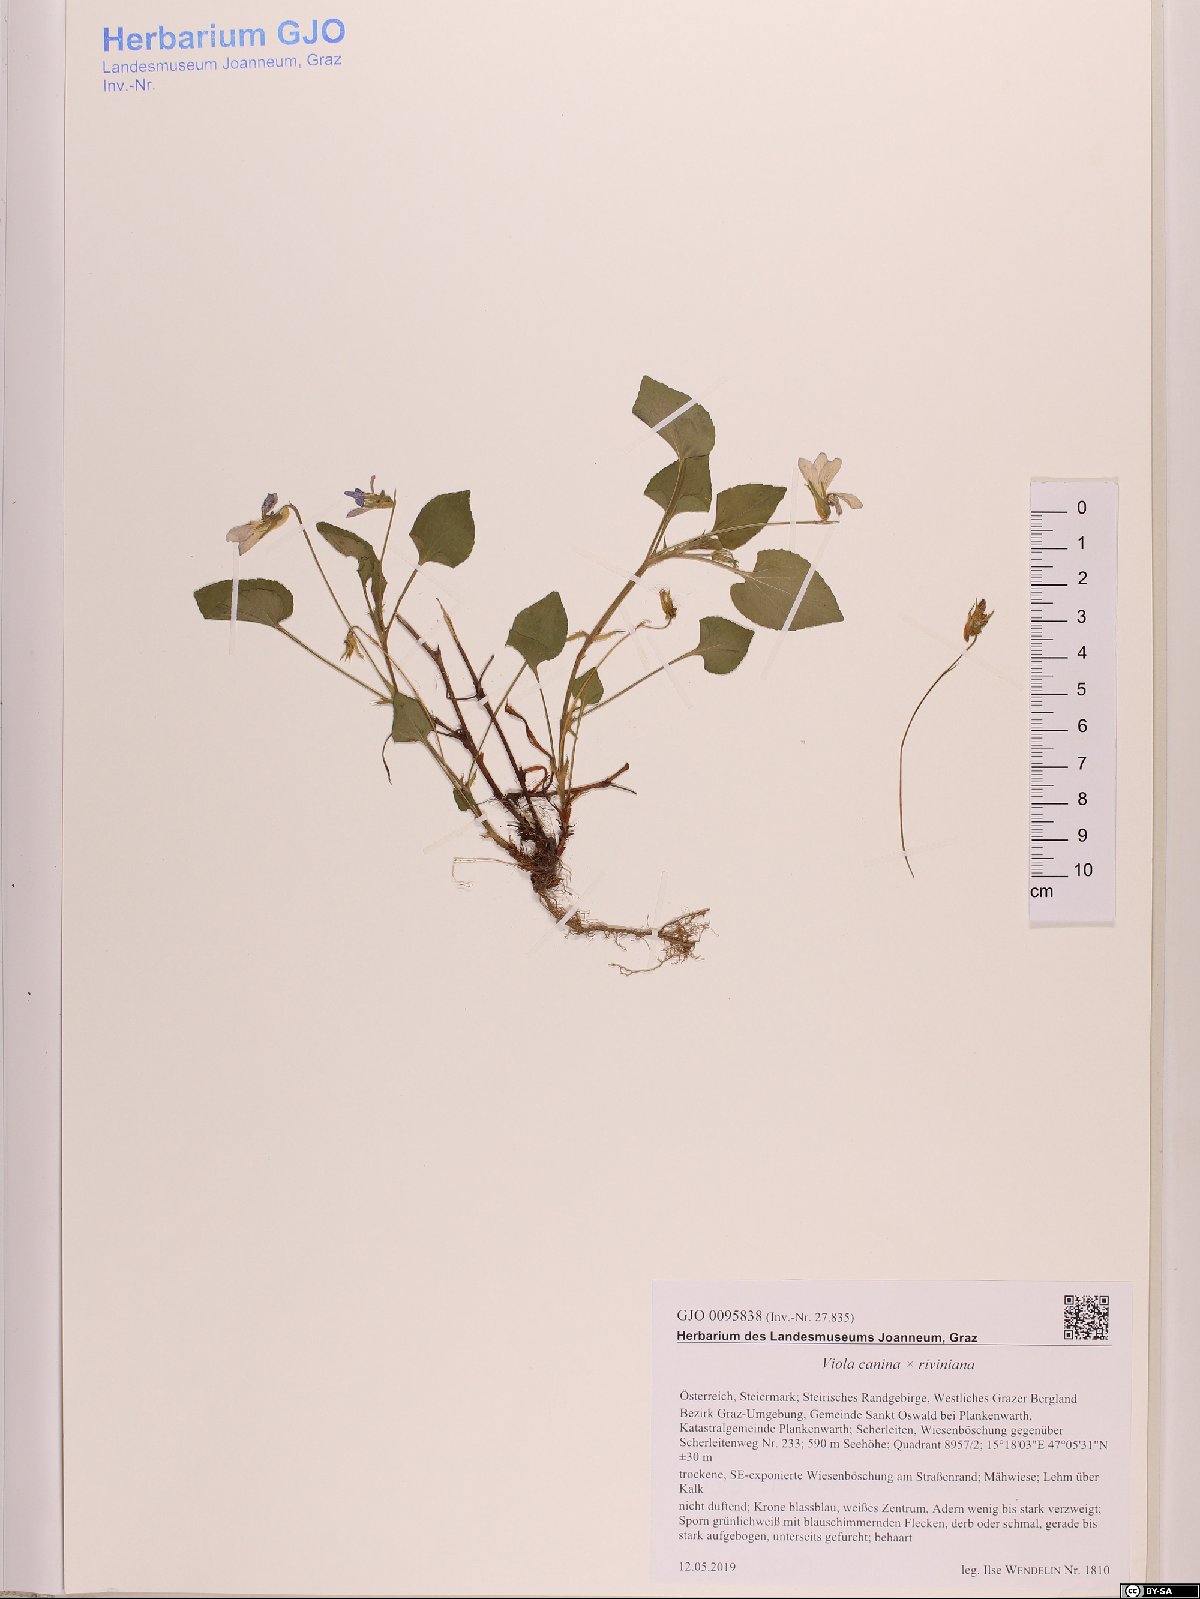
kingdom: Plantae
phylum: Tracheophyta
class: Magnoliopsida
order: Malpighiales
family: Violaceae
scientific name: Violaceae
